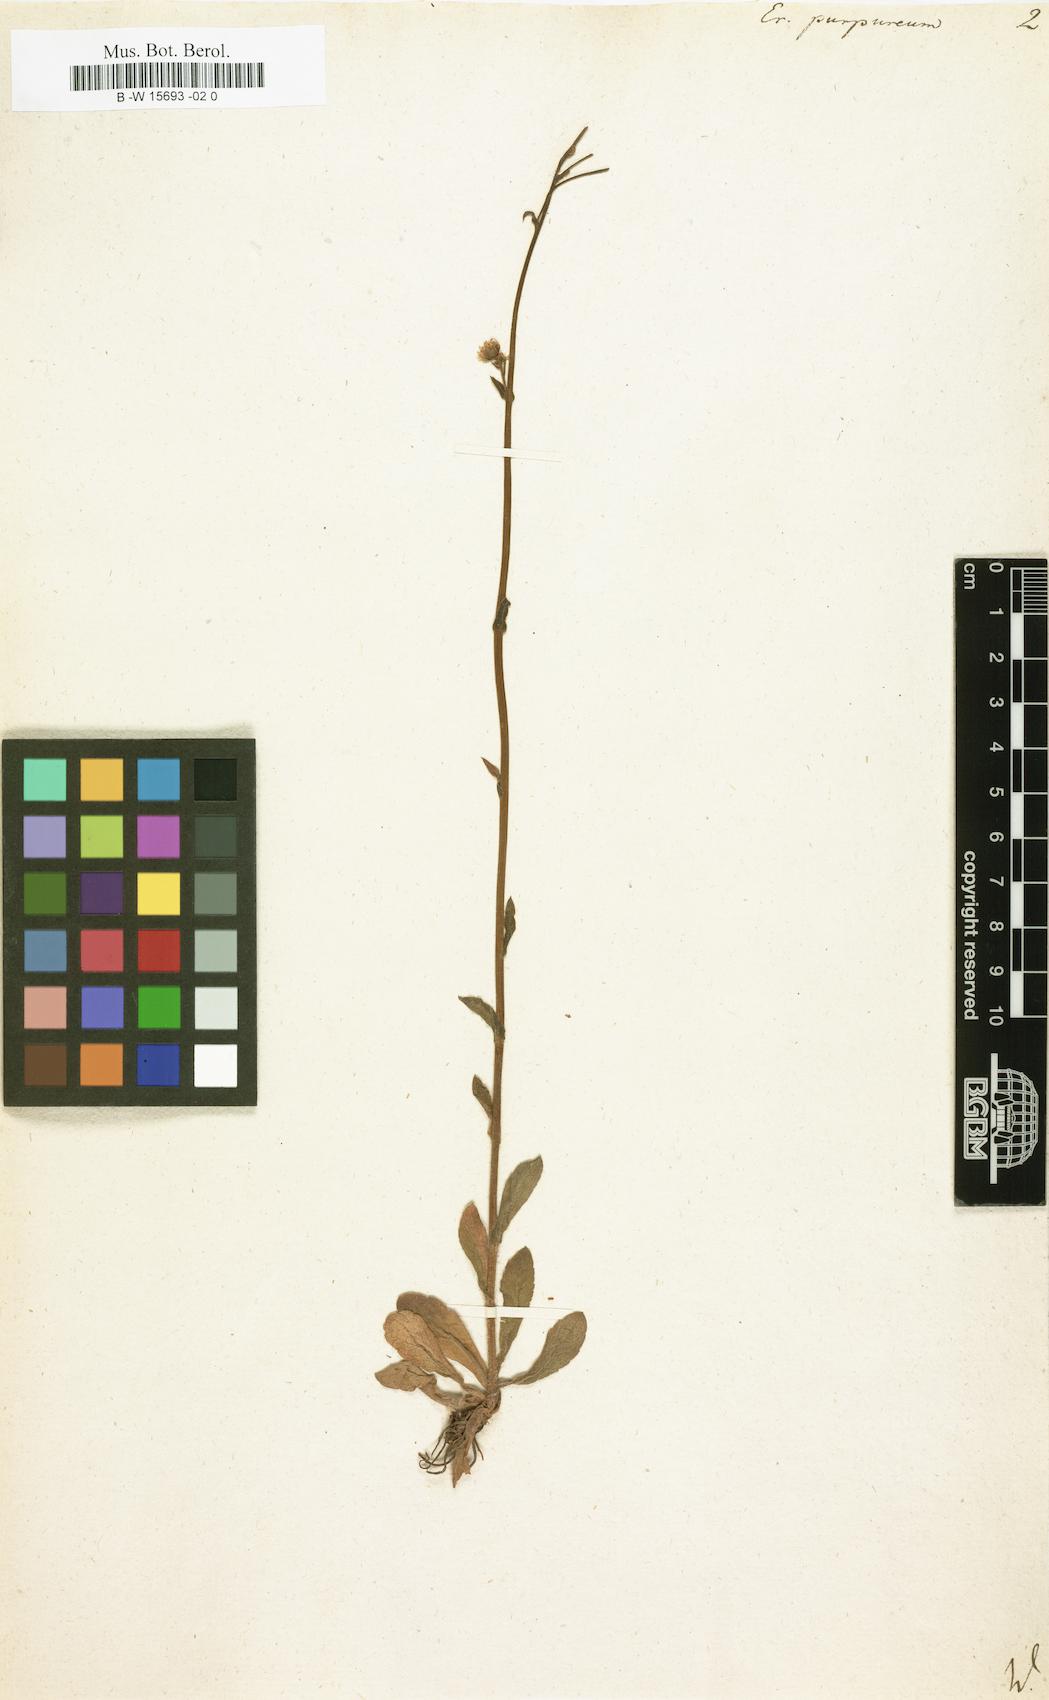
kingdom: Plantae
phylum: Tracheophyta
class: Magnoliopsida
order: Asterales
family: Asteraceae
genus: Erigeron
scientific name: Erigeron philadelphicus
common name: Robin's-plantain
